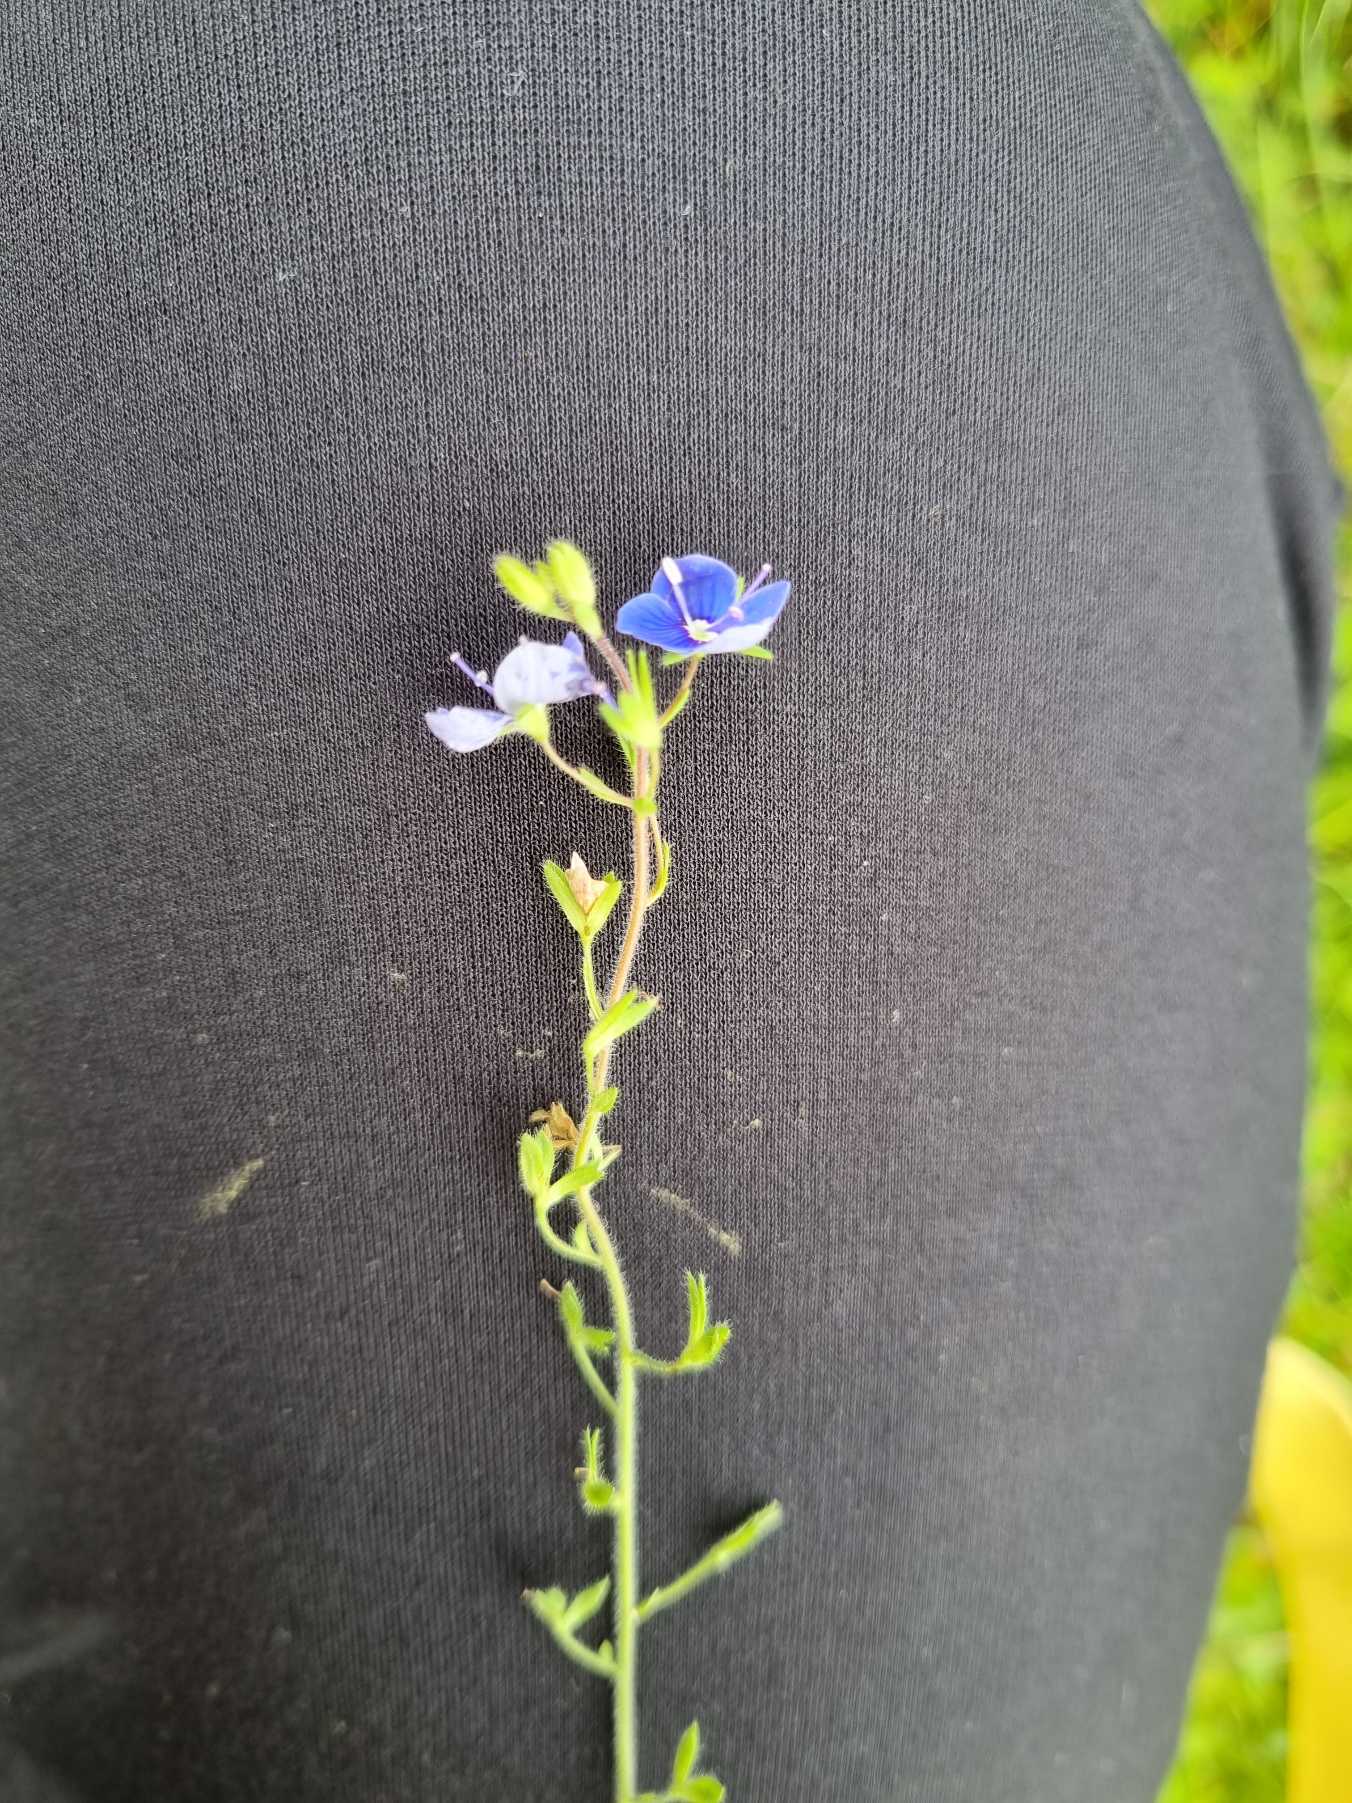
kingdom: Plantae
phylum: Tracheophyta
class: Magnoliopsida
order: Lamiales
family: Plantaginaceae
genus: Veronica
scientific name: Veronica chamaedrys
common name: Tveskægget ærenpris
